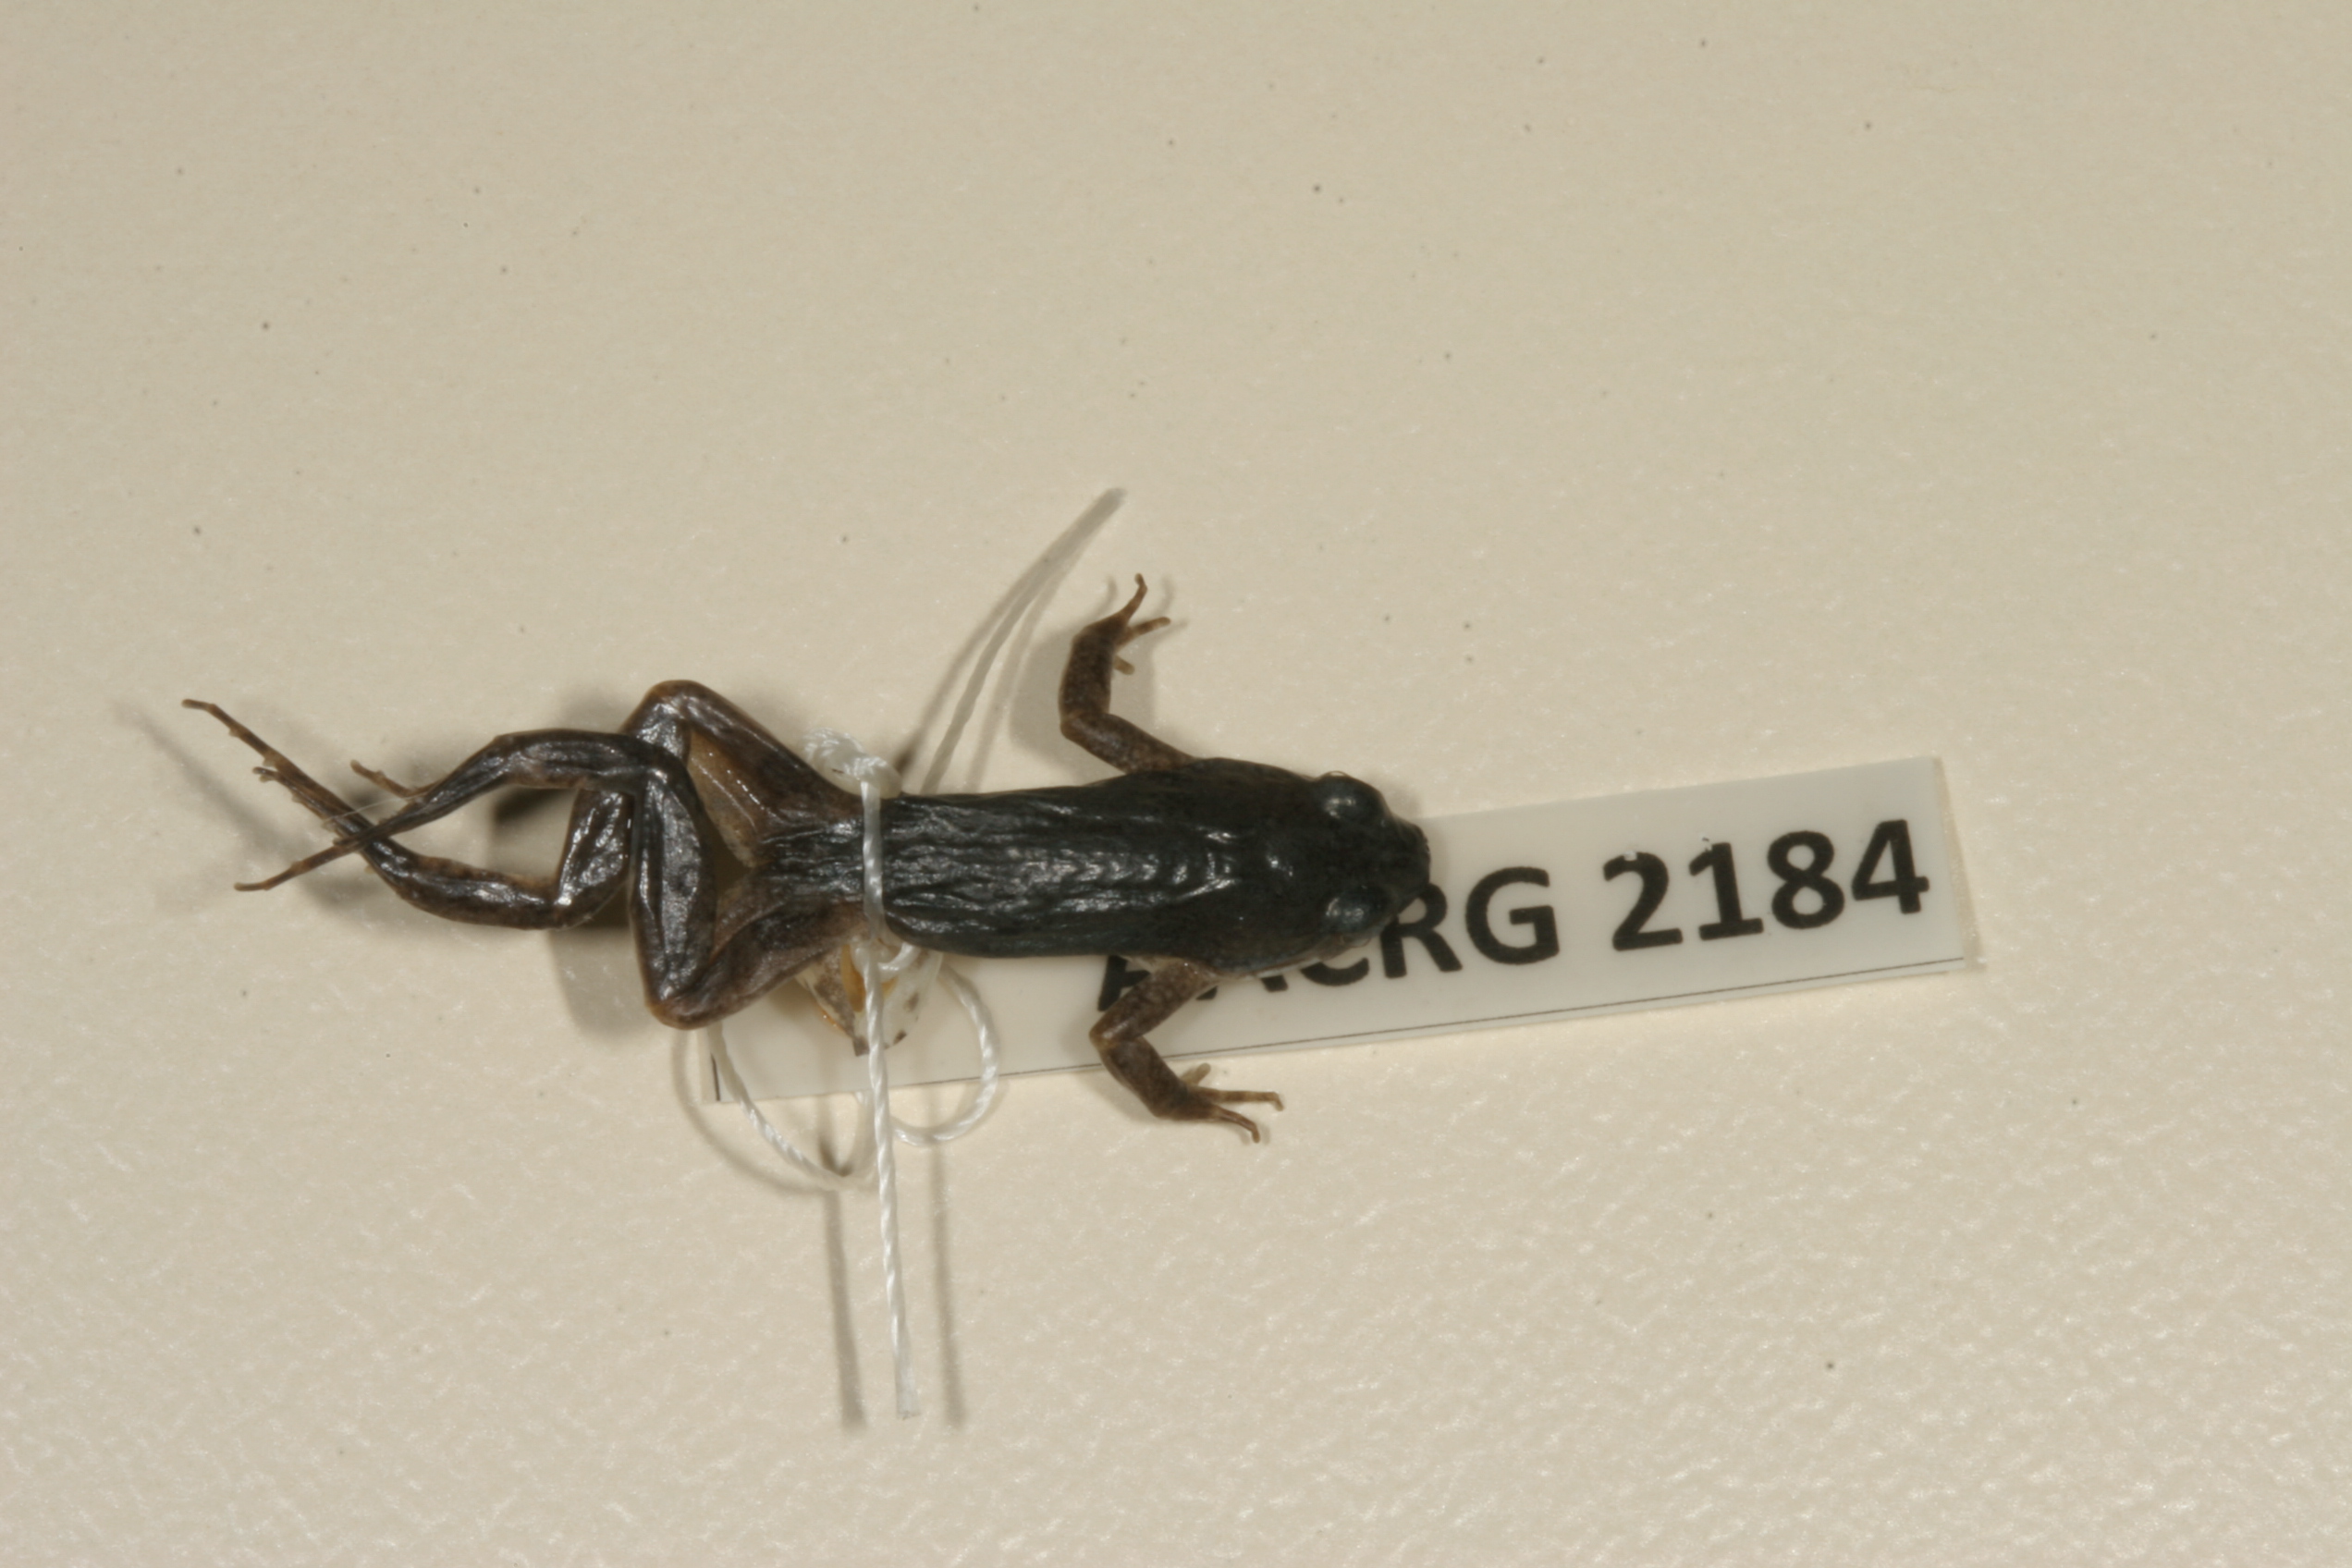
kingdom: Animalia
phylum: Chordata
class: Amphibia
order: Anura
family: Pyxicephalidae
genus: Cacosternum
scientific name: Cacosternum boettgeri
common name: Boettger's frog
